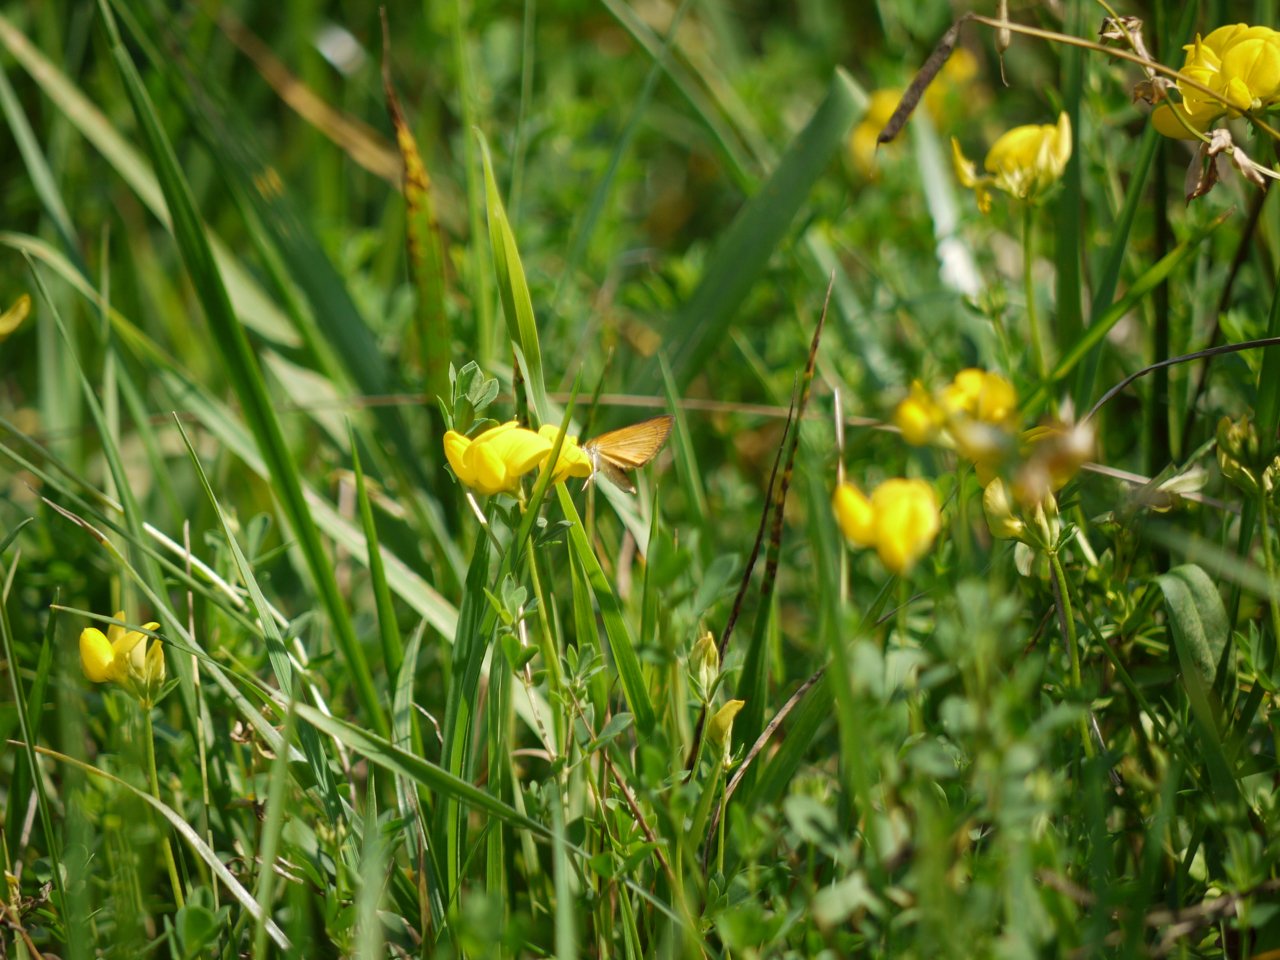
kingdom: Animalia
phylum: Arthropoda
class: Insecta
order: Lepidoptera
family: Hesperiidae
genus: Ancyloxypha
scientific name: Ancyloxypha numitor
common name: Least Skipper
